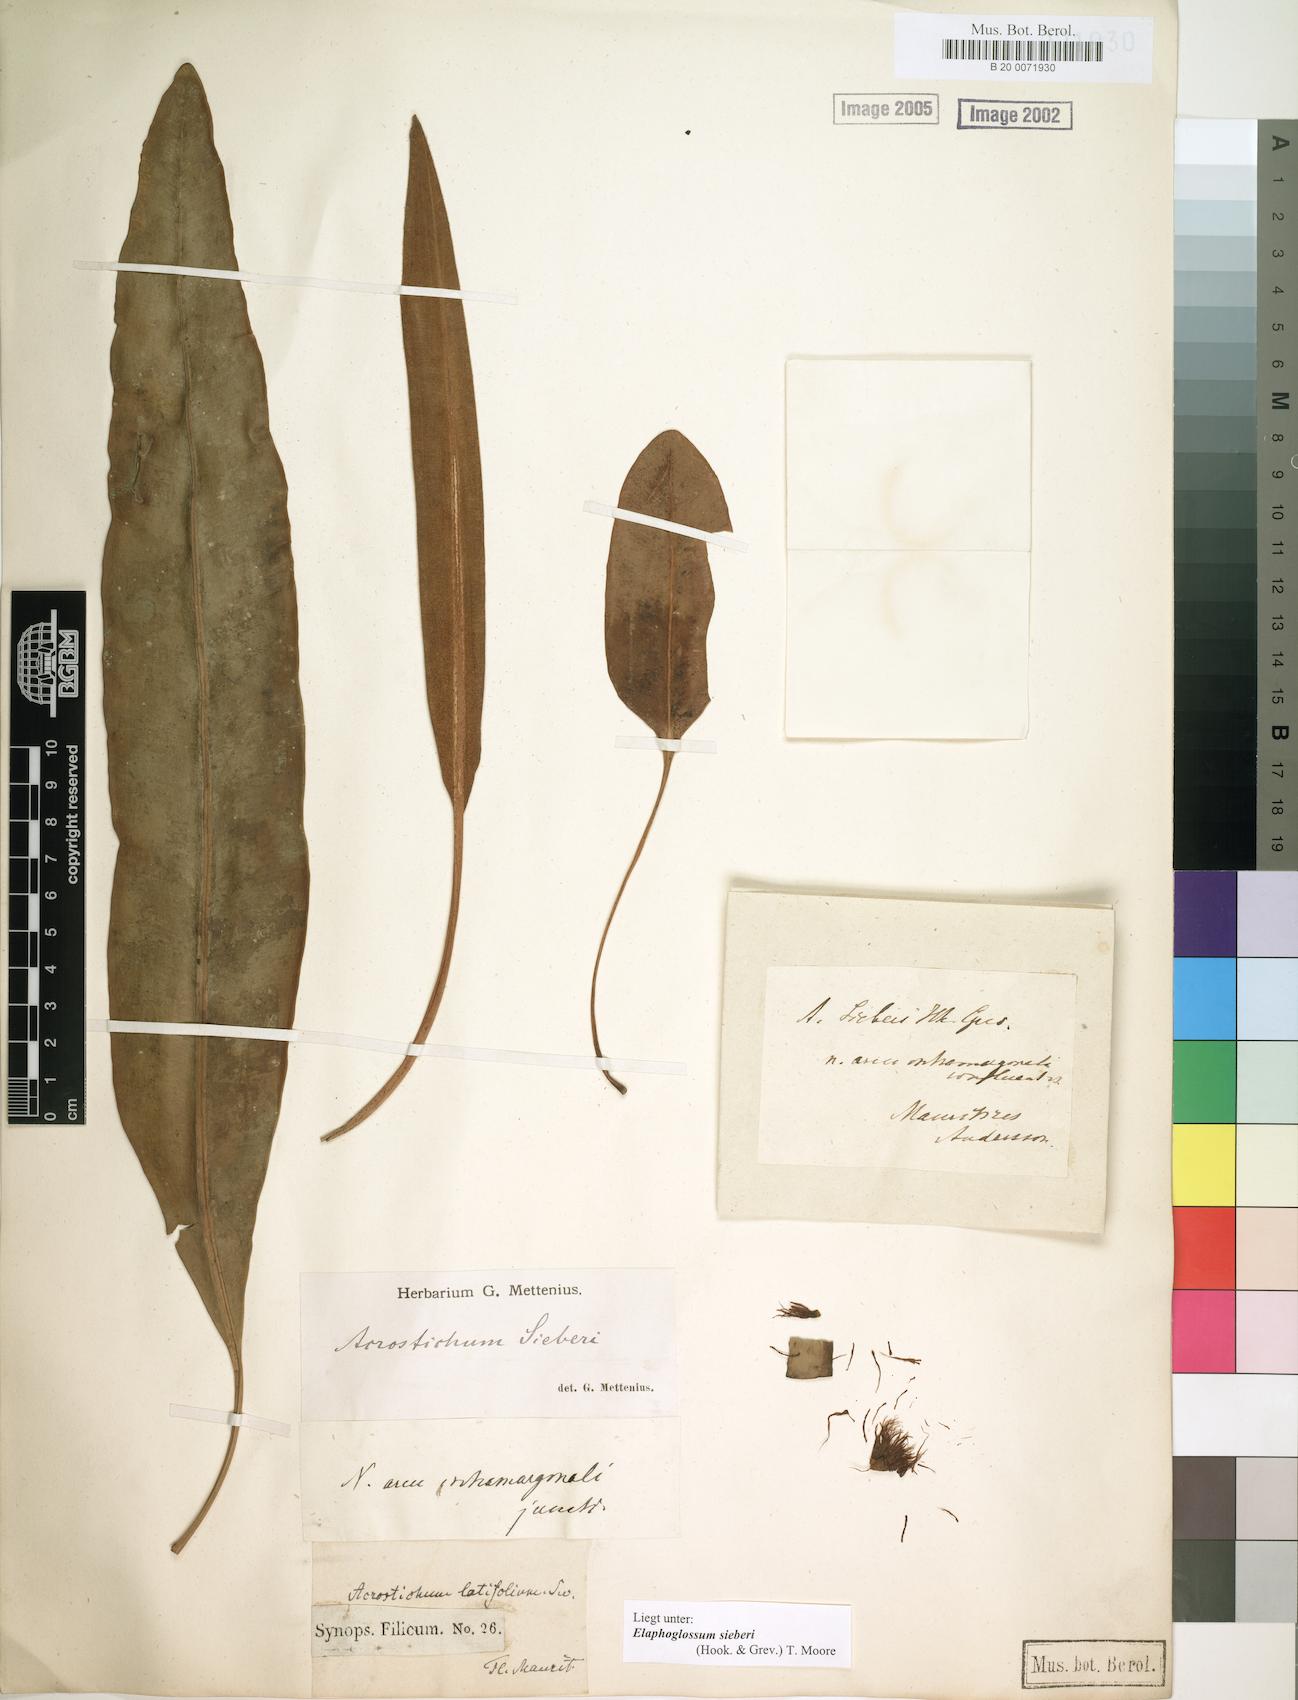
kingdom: Plantae
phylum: Tracheophyta
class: Polypodiopsida
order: Polypodiales
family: Dryopteridaceae
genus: Elaphoglossum
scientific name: Elaphoglossum sieberi
